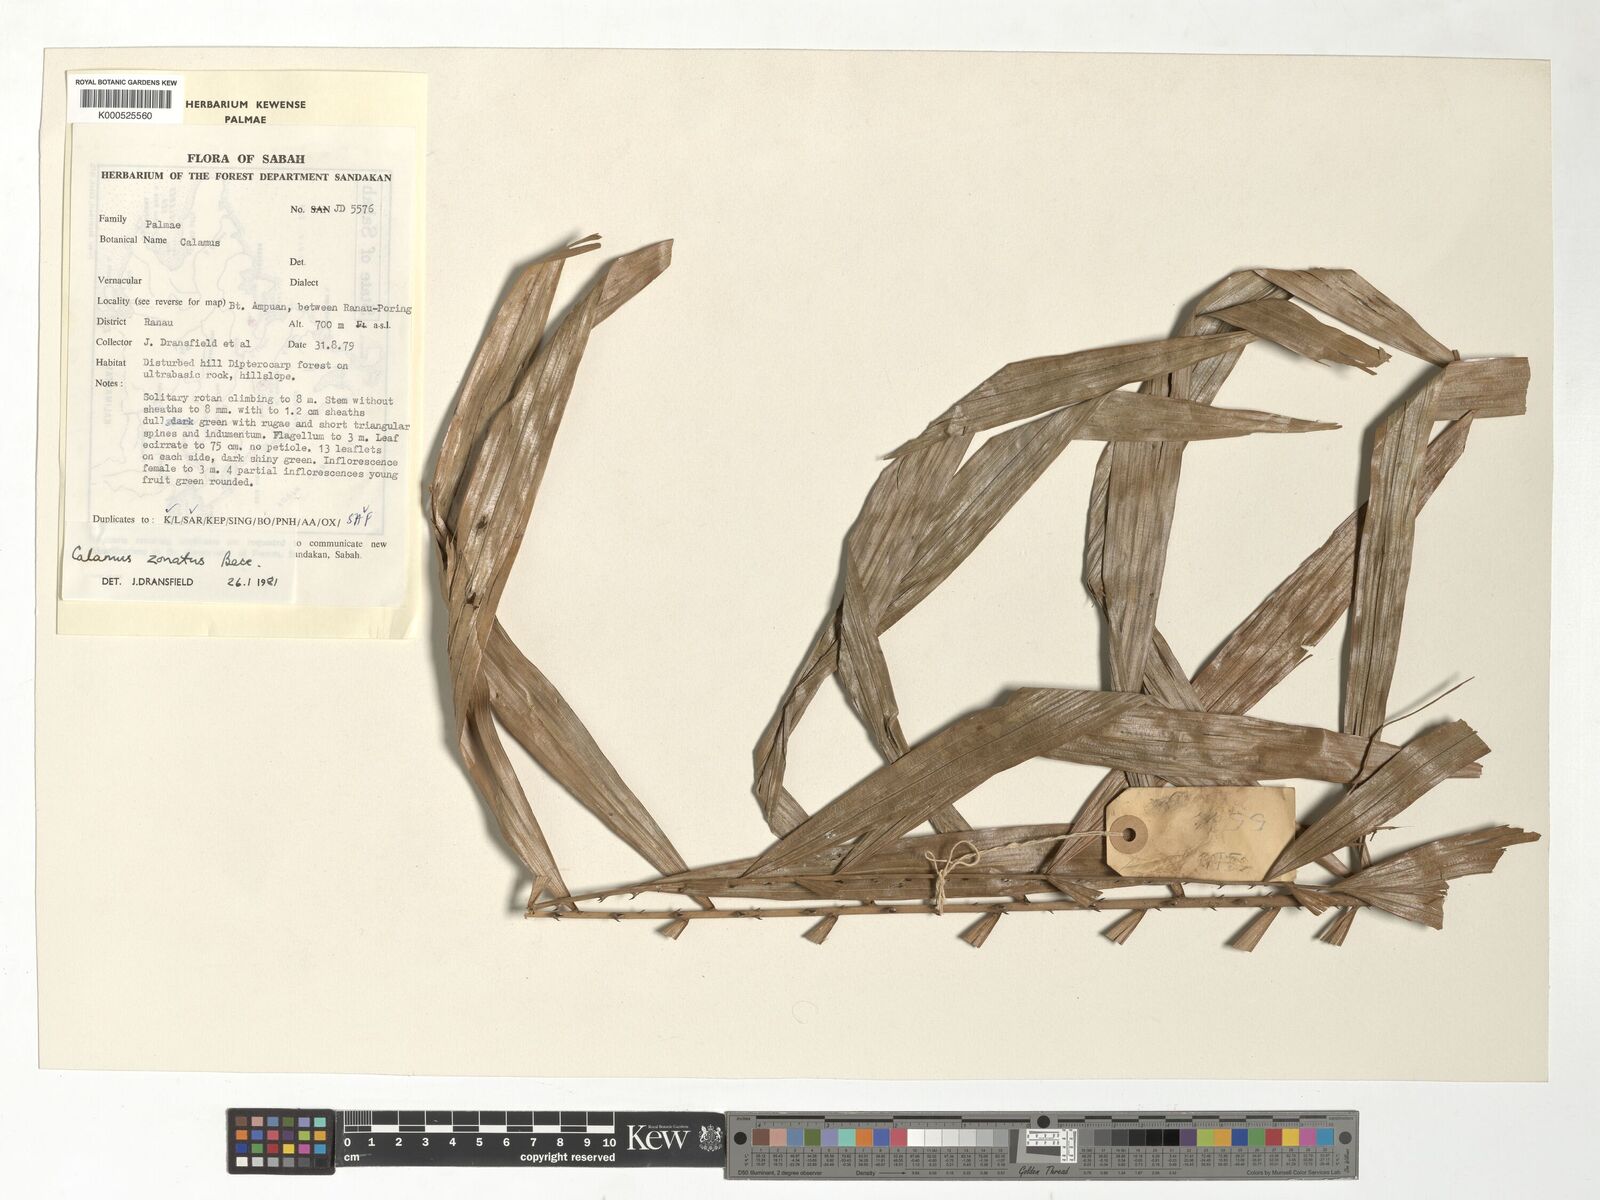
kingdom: Plantae
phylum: Tracheophyta
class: Liliopsida
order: Arecales
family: Arecaceae
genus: Calamus
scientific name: Calamus zonatus
